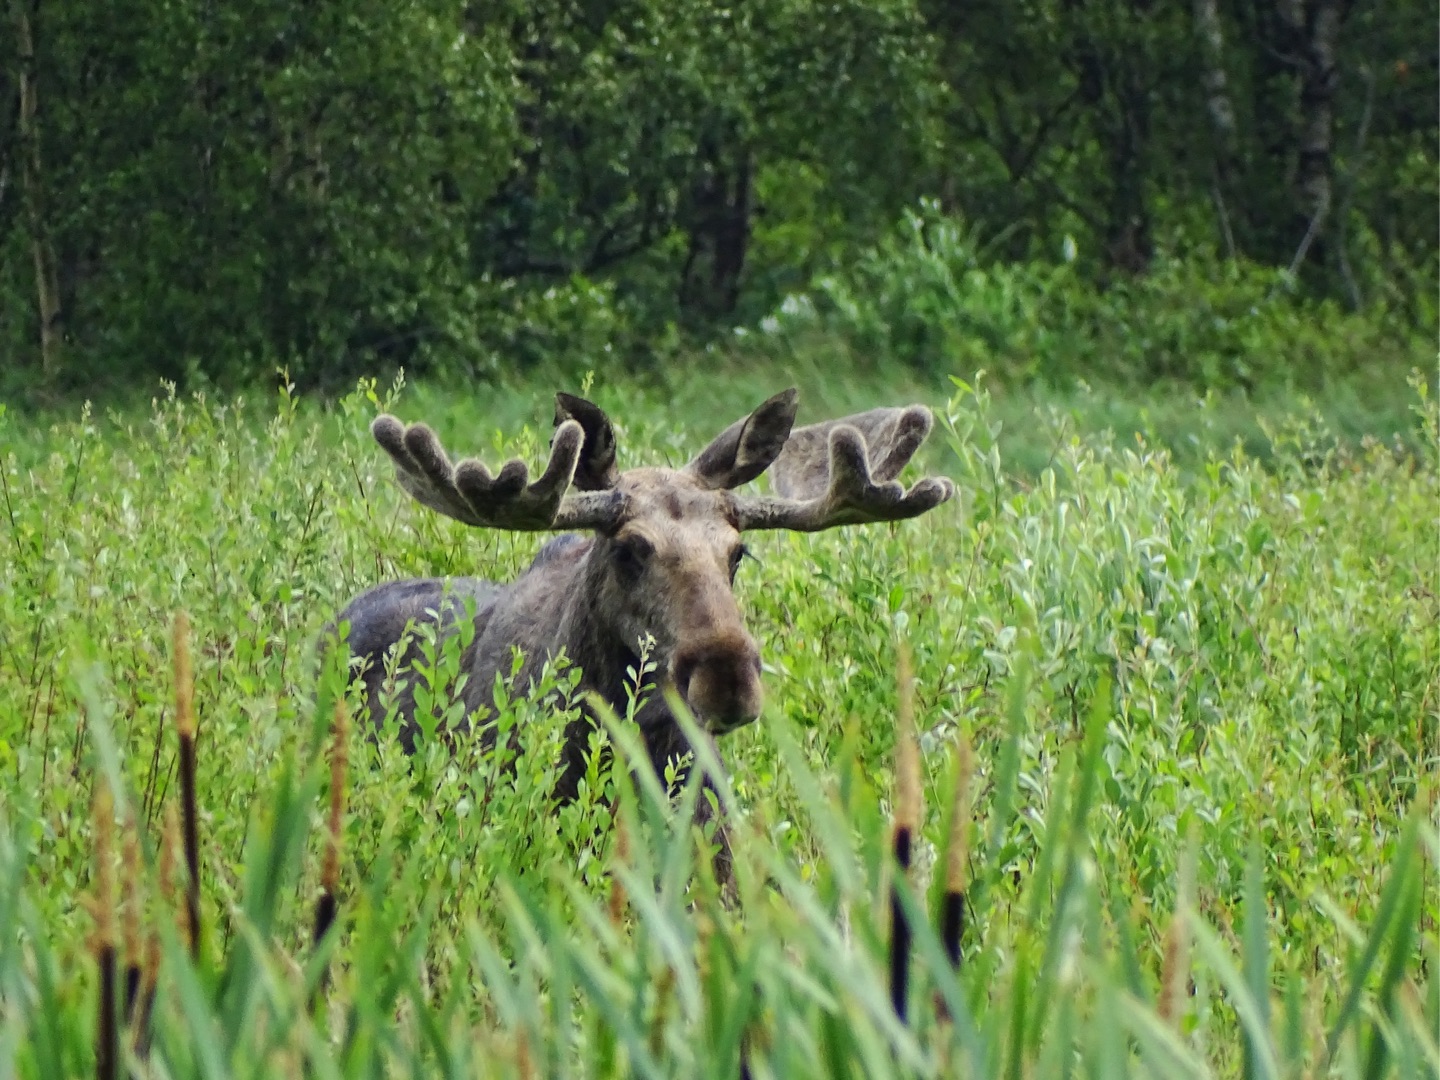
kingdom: Animalia
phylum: Chordata
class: Mammalia
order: Artiodactyla
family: Cervidae
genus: Alces
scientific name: Alces alces
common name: Elg
